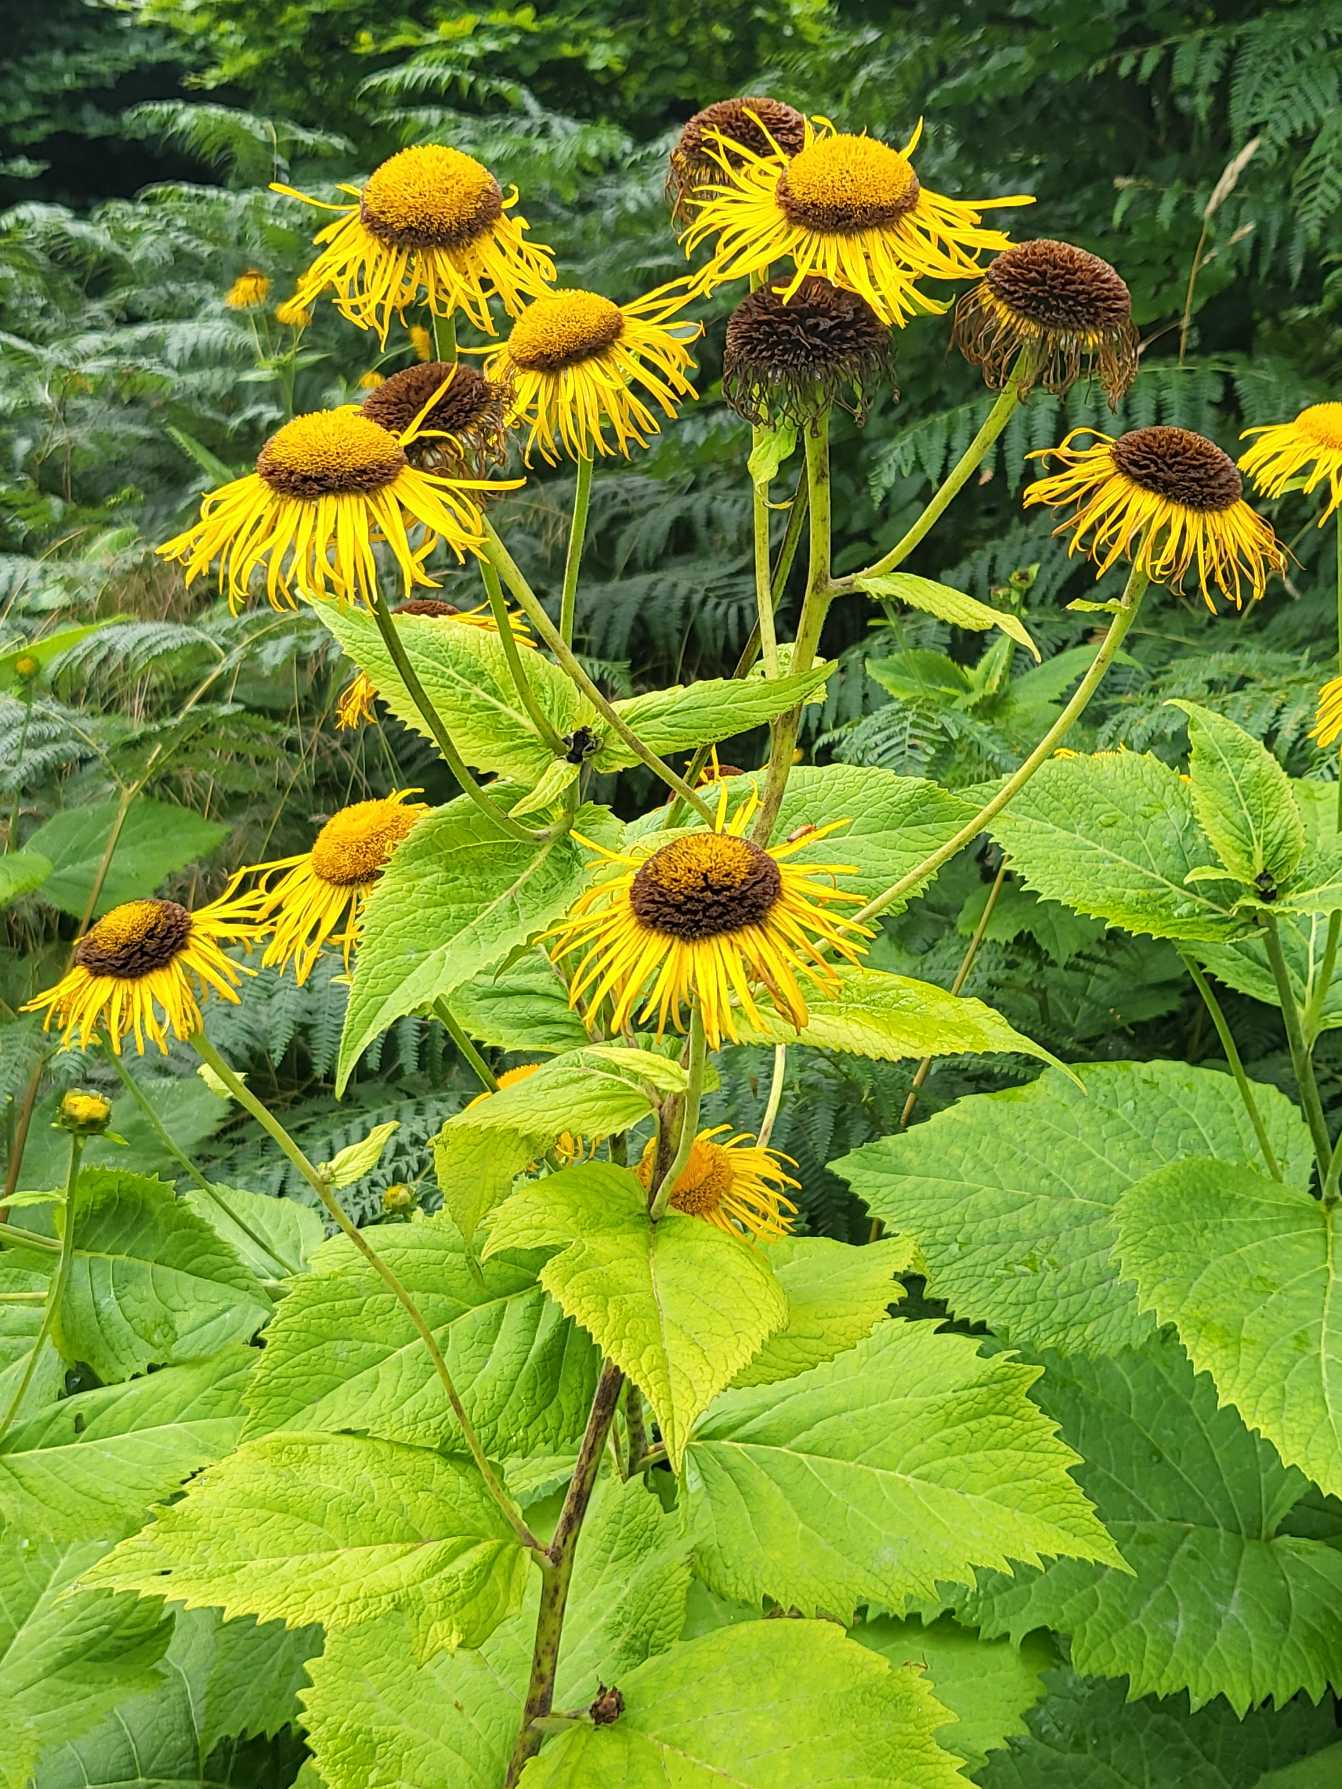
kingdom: Plantae
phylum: Tracheophyta
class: Magnoliopsida
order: Asterales
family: Asteraceae
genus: Telekia
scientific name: Telekia speciosa
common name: Tusindstråle
